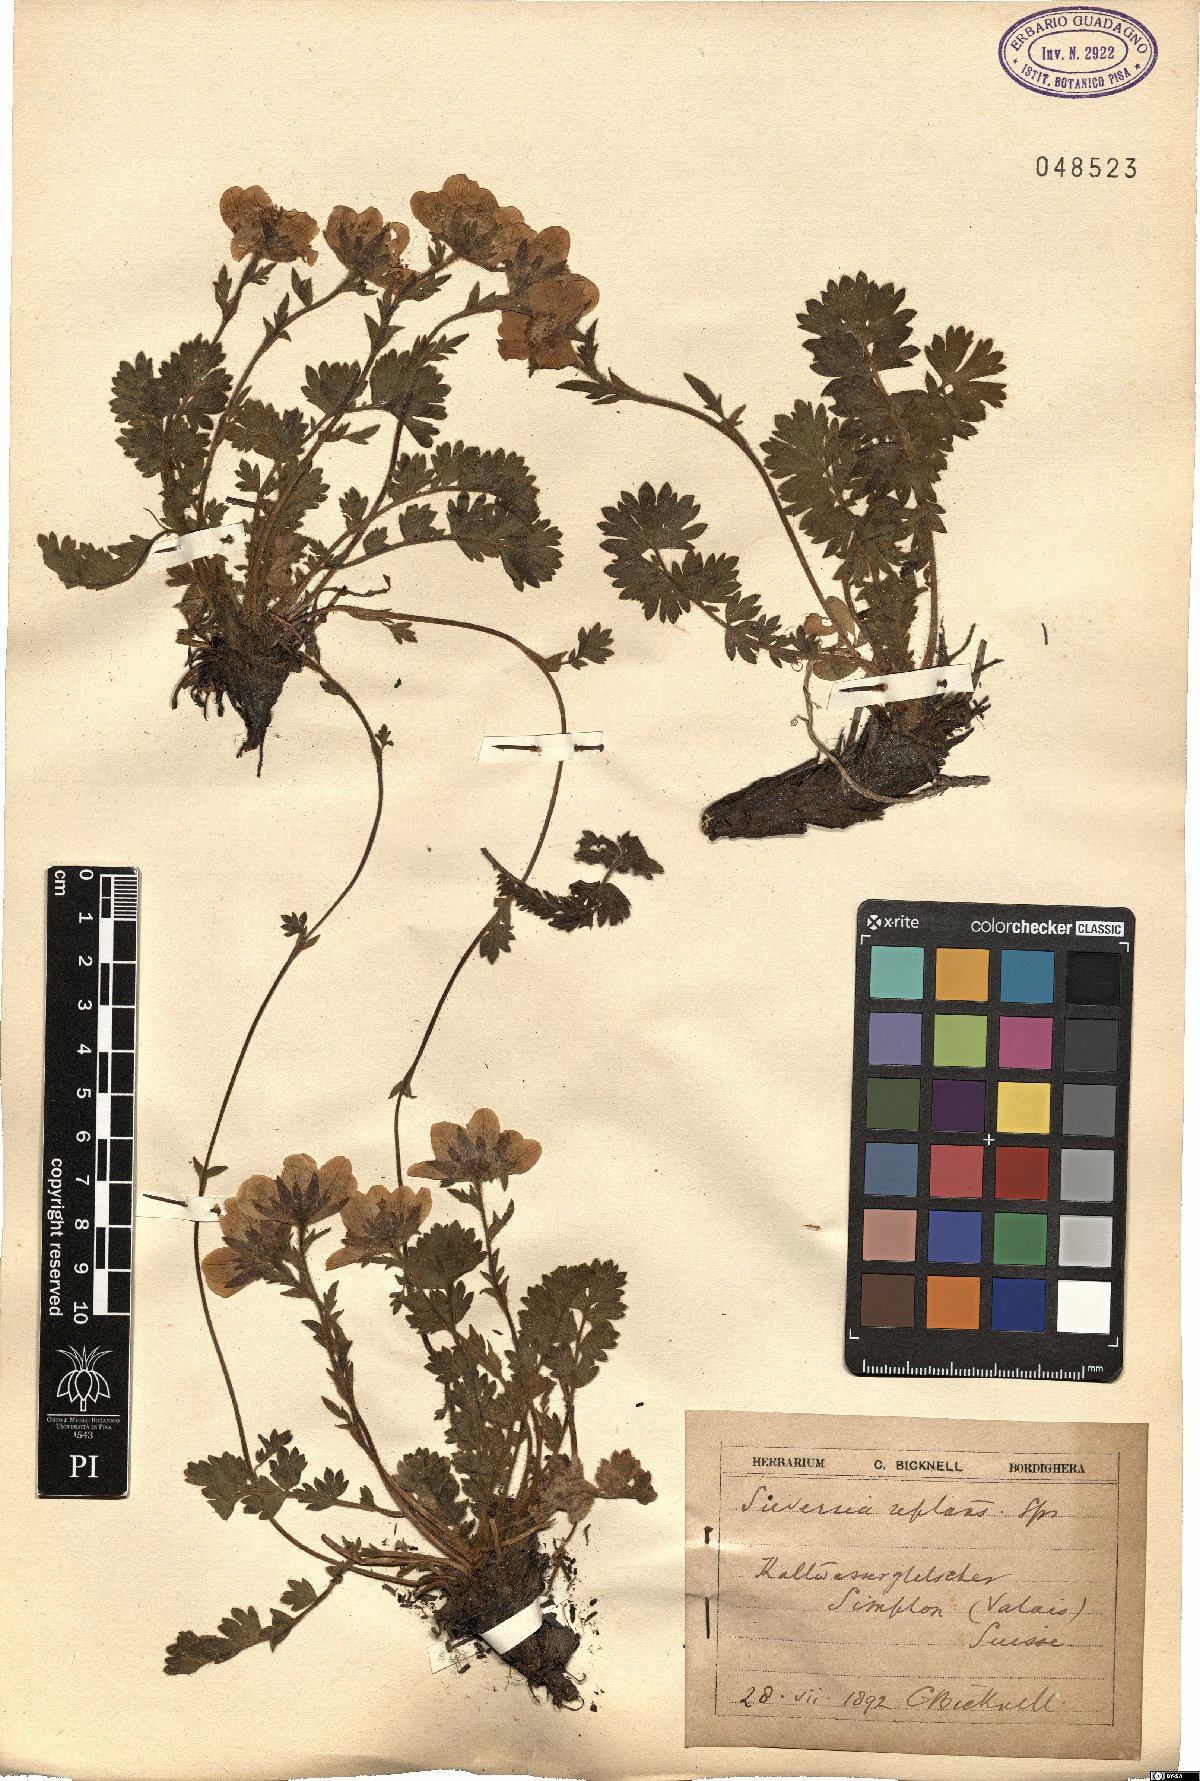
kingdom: Plantae
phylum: Tracheophyta
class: Magnoliopsida
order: Rosales
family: Rosaceae
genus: Geum
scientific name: Geum reptans
